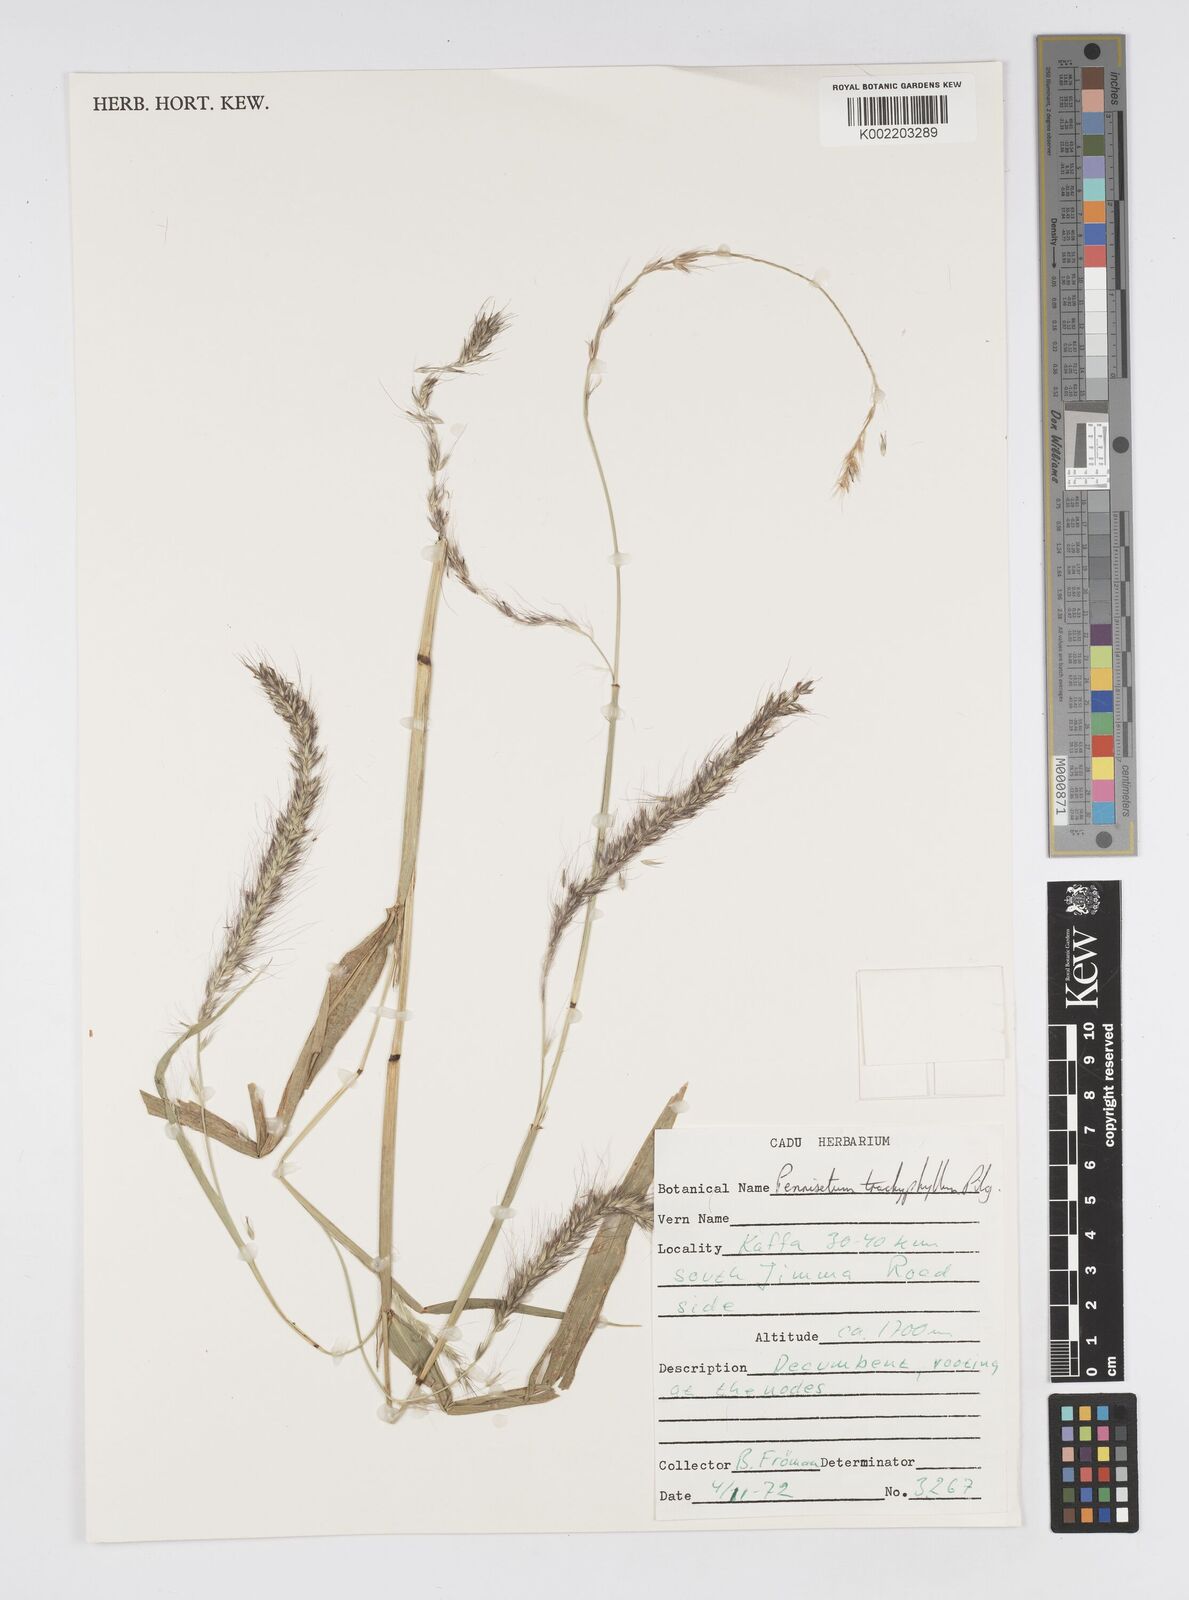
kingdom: Plantae
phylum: Tracheophyta
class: Liliopsida
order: Poales
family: Poaceae
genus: Cenchrus
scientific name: Cenchrus trachyphyllus
